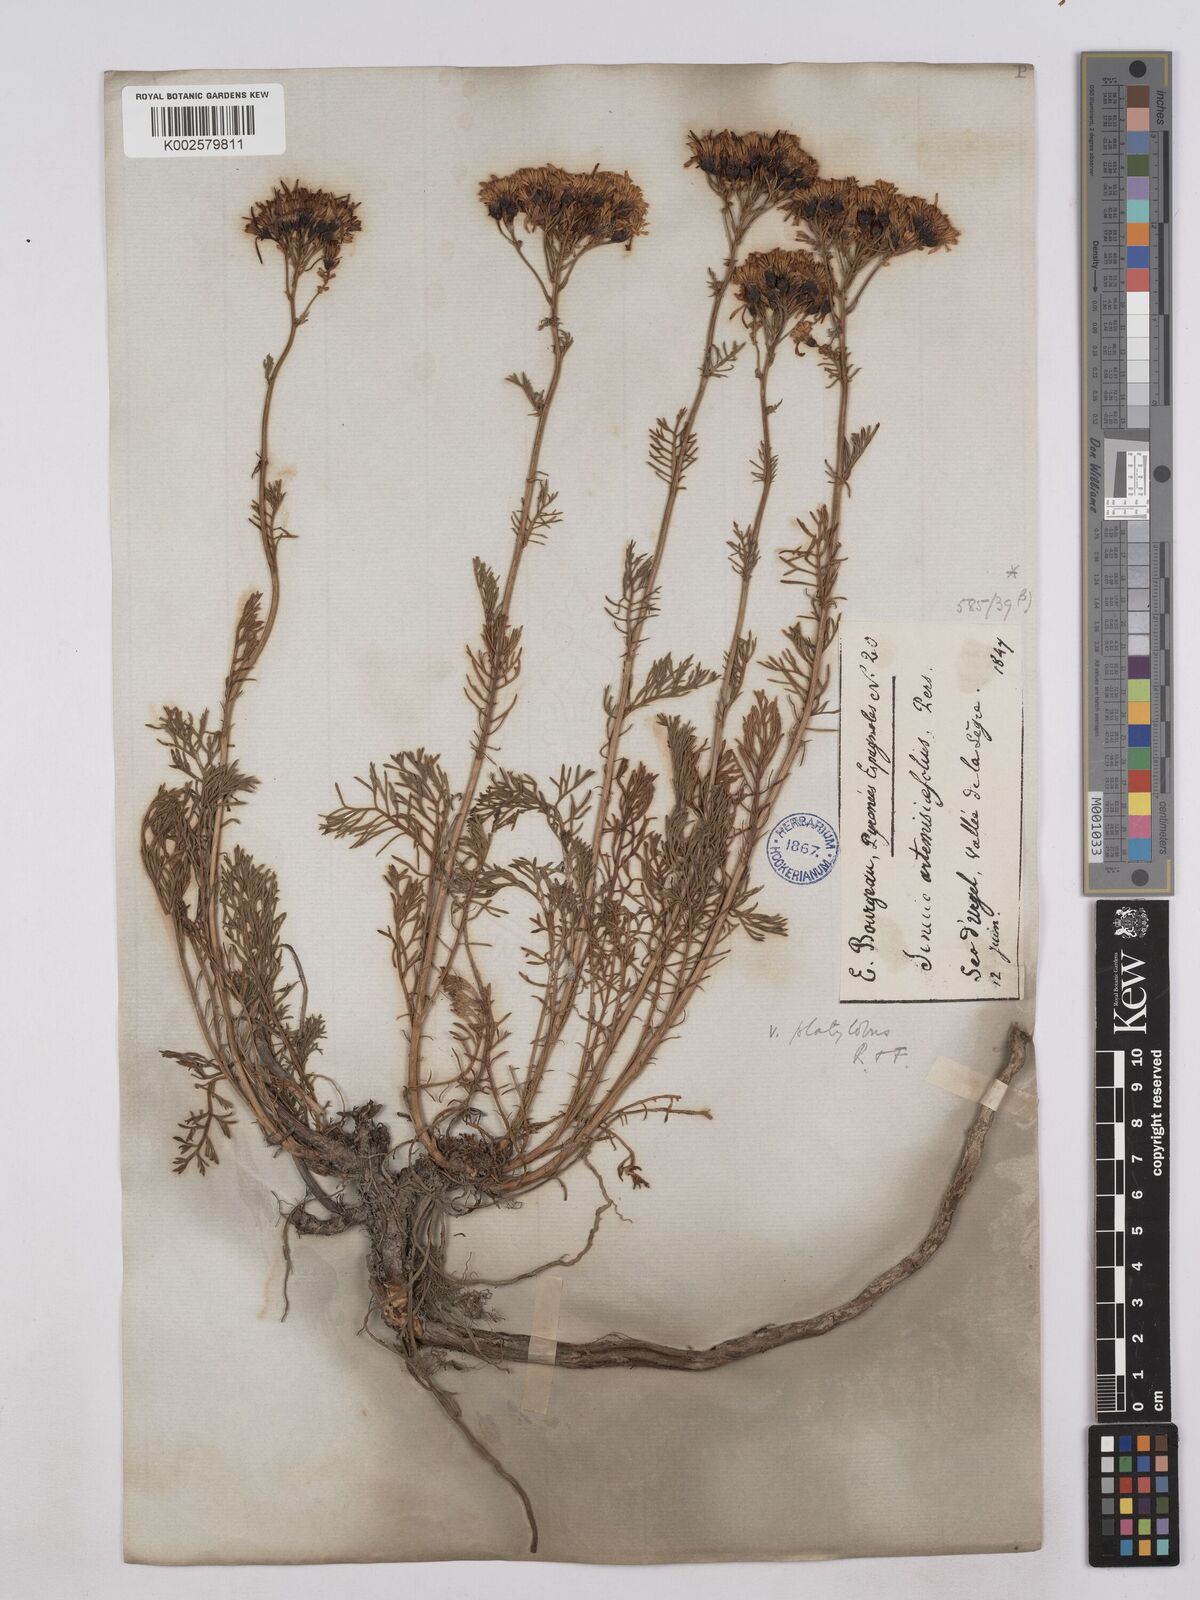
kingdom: Plantae
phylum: Tracheophyta
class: Magnoliopsida
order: Asterales
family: Asteraceae
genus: Jacobaea
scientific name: Jacobaea adonidifolia
